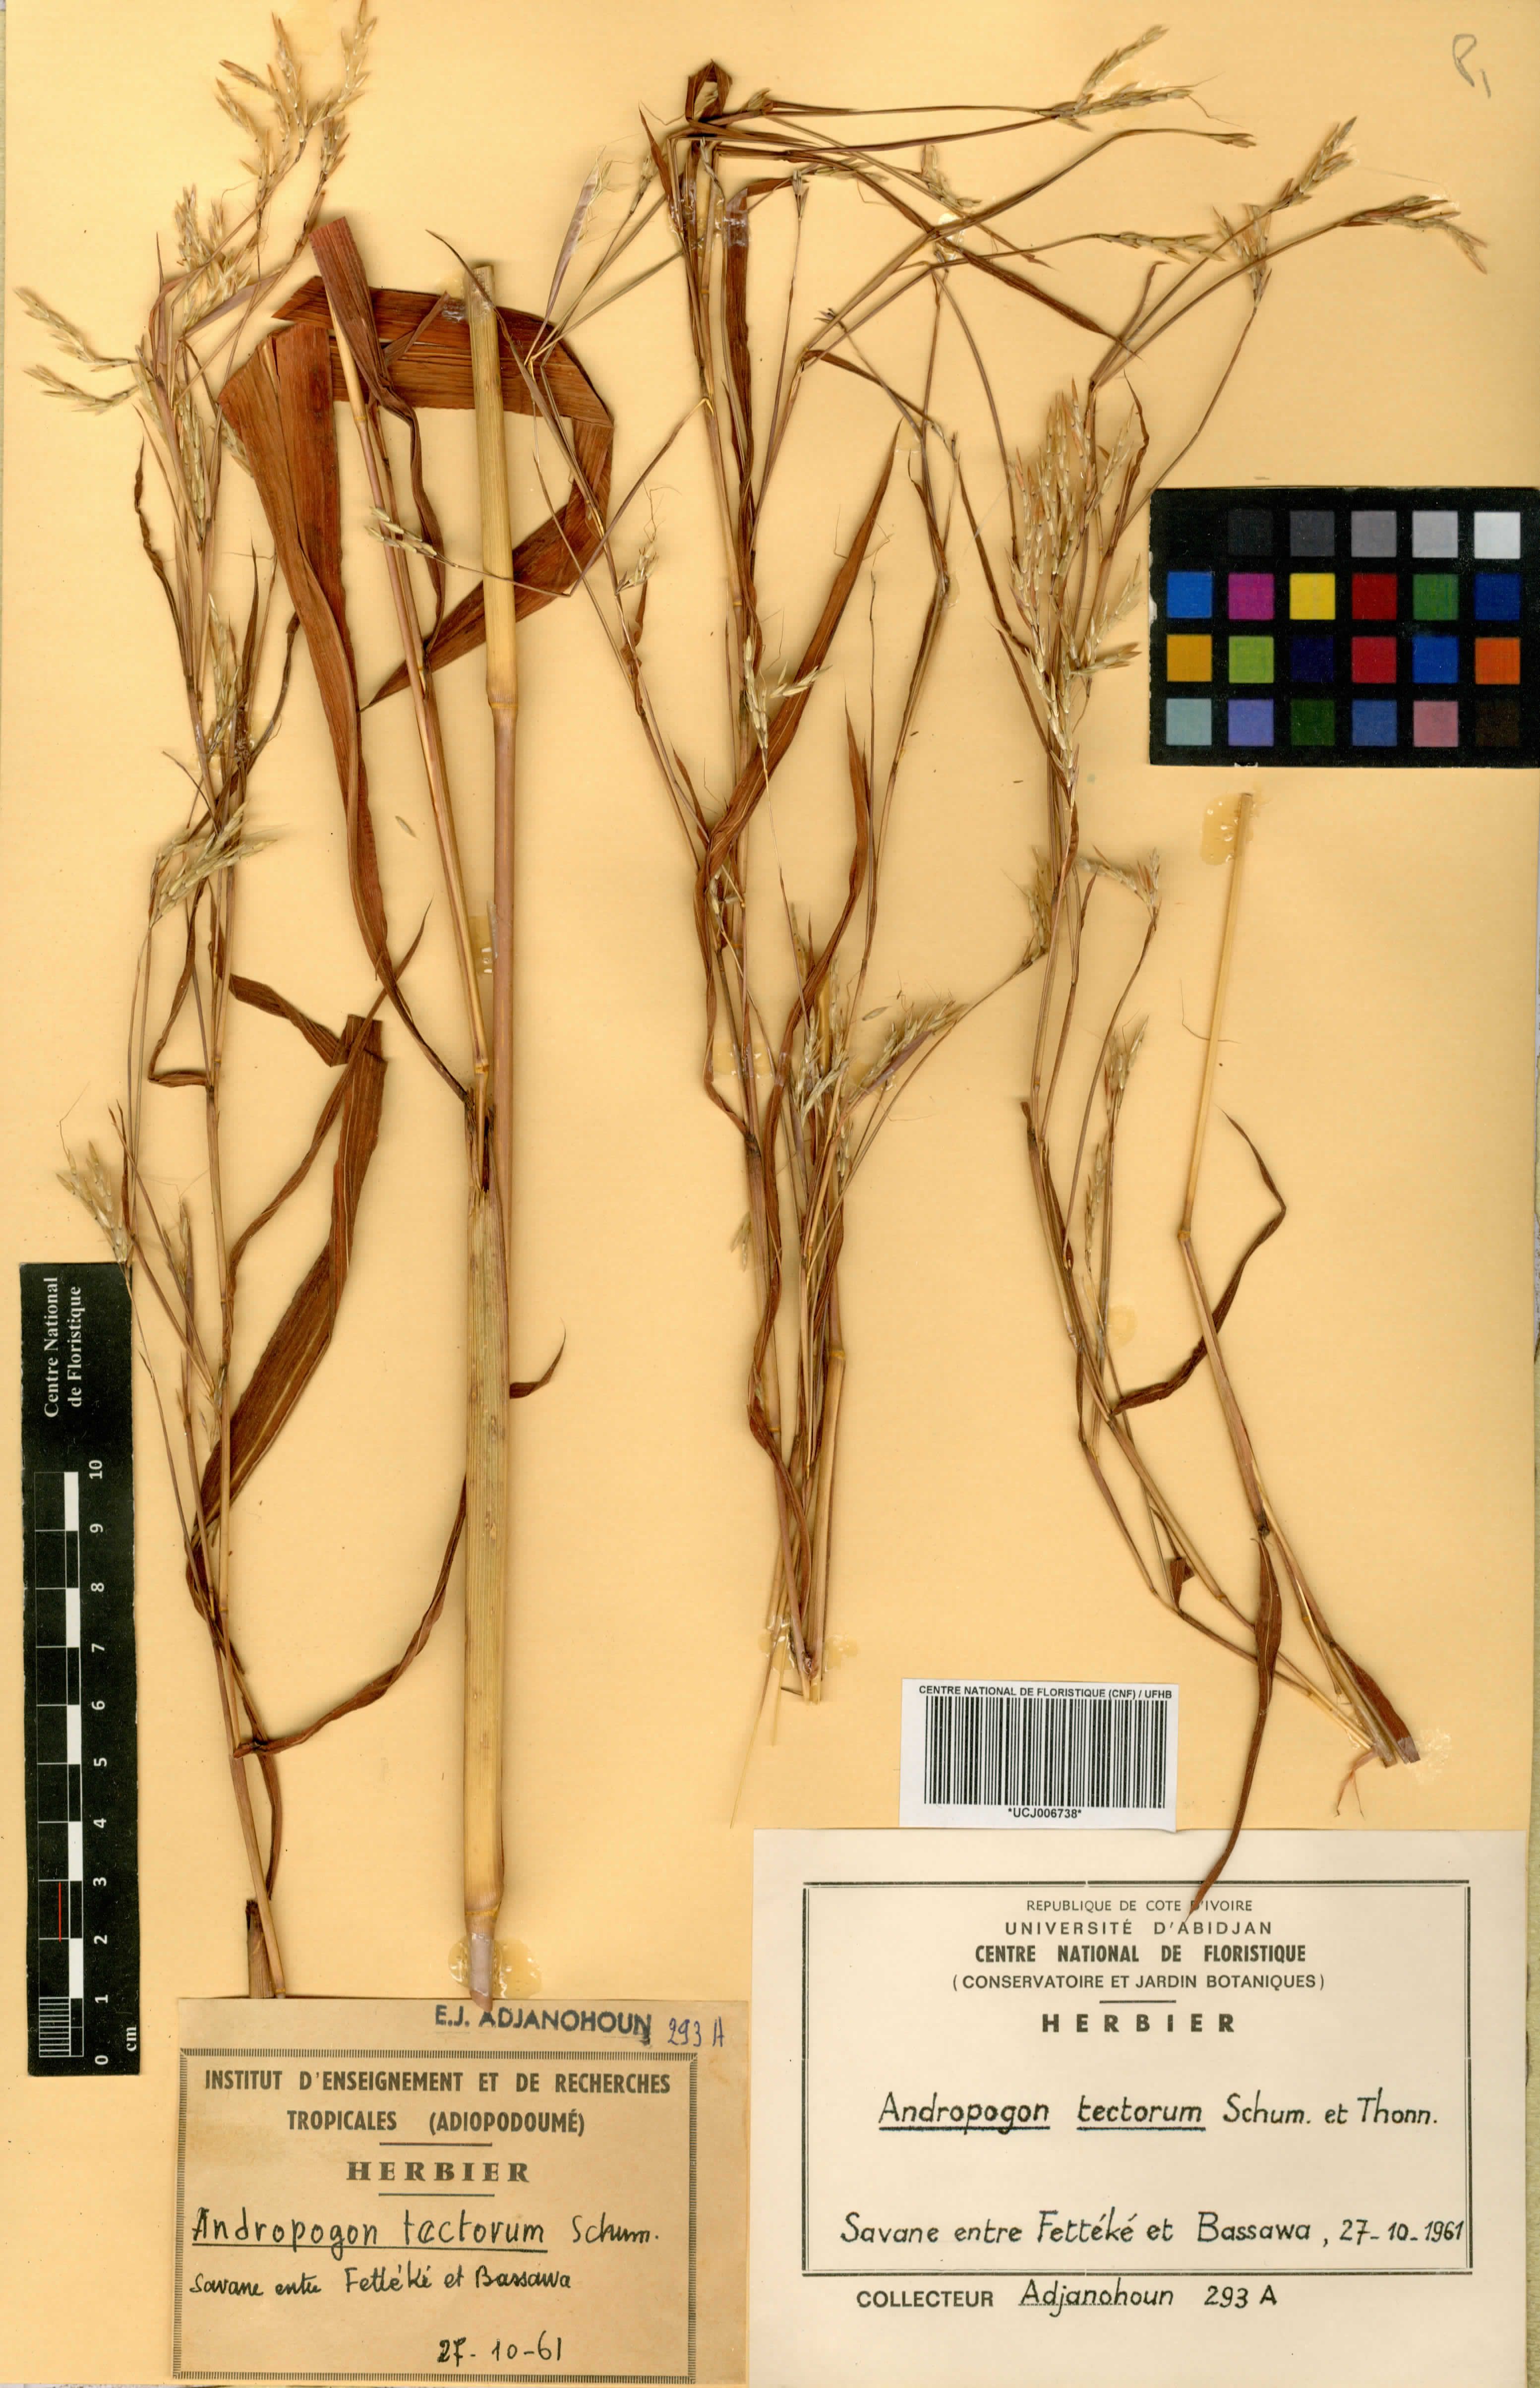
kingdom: Plantae
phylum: Tracheophyta
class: Liliopsida
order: Poales
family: Poaceae
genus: Andropogon
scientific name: Andropogon tectorum
